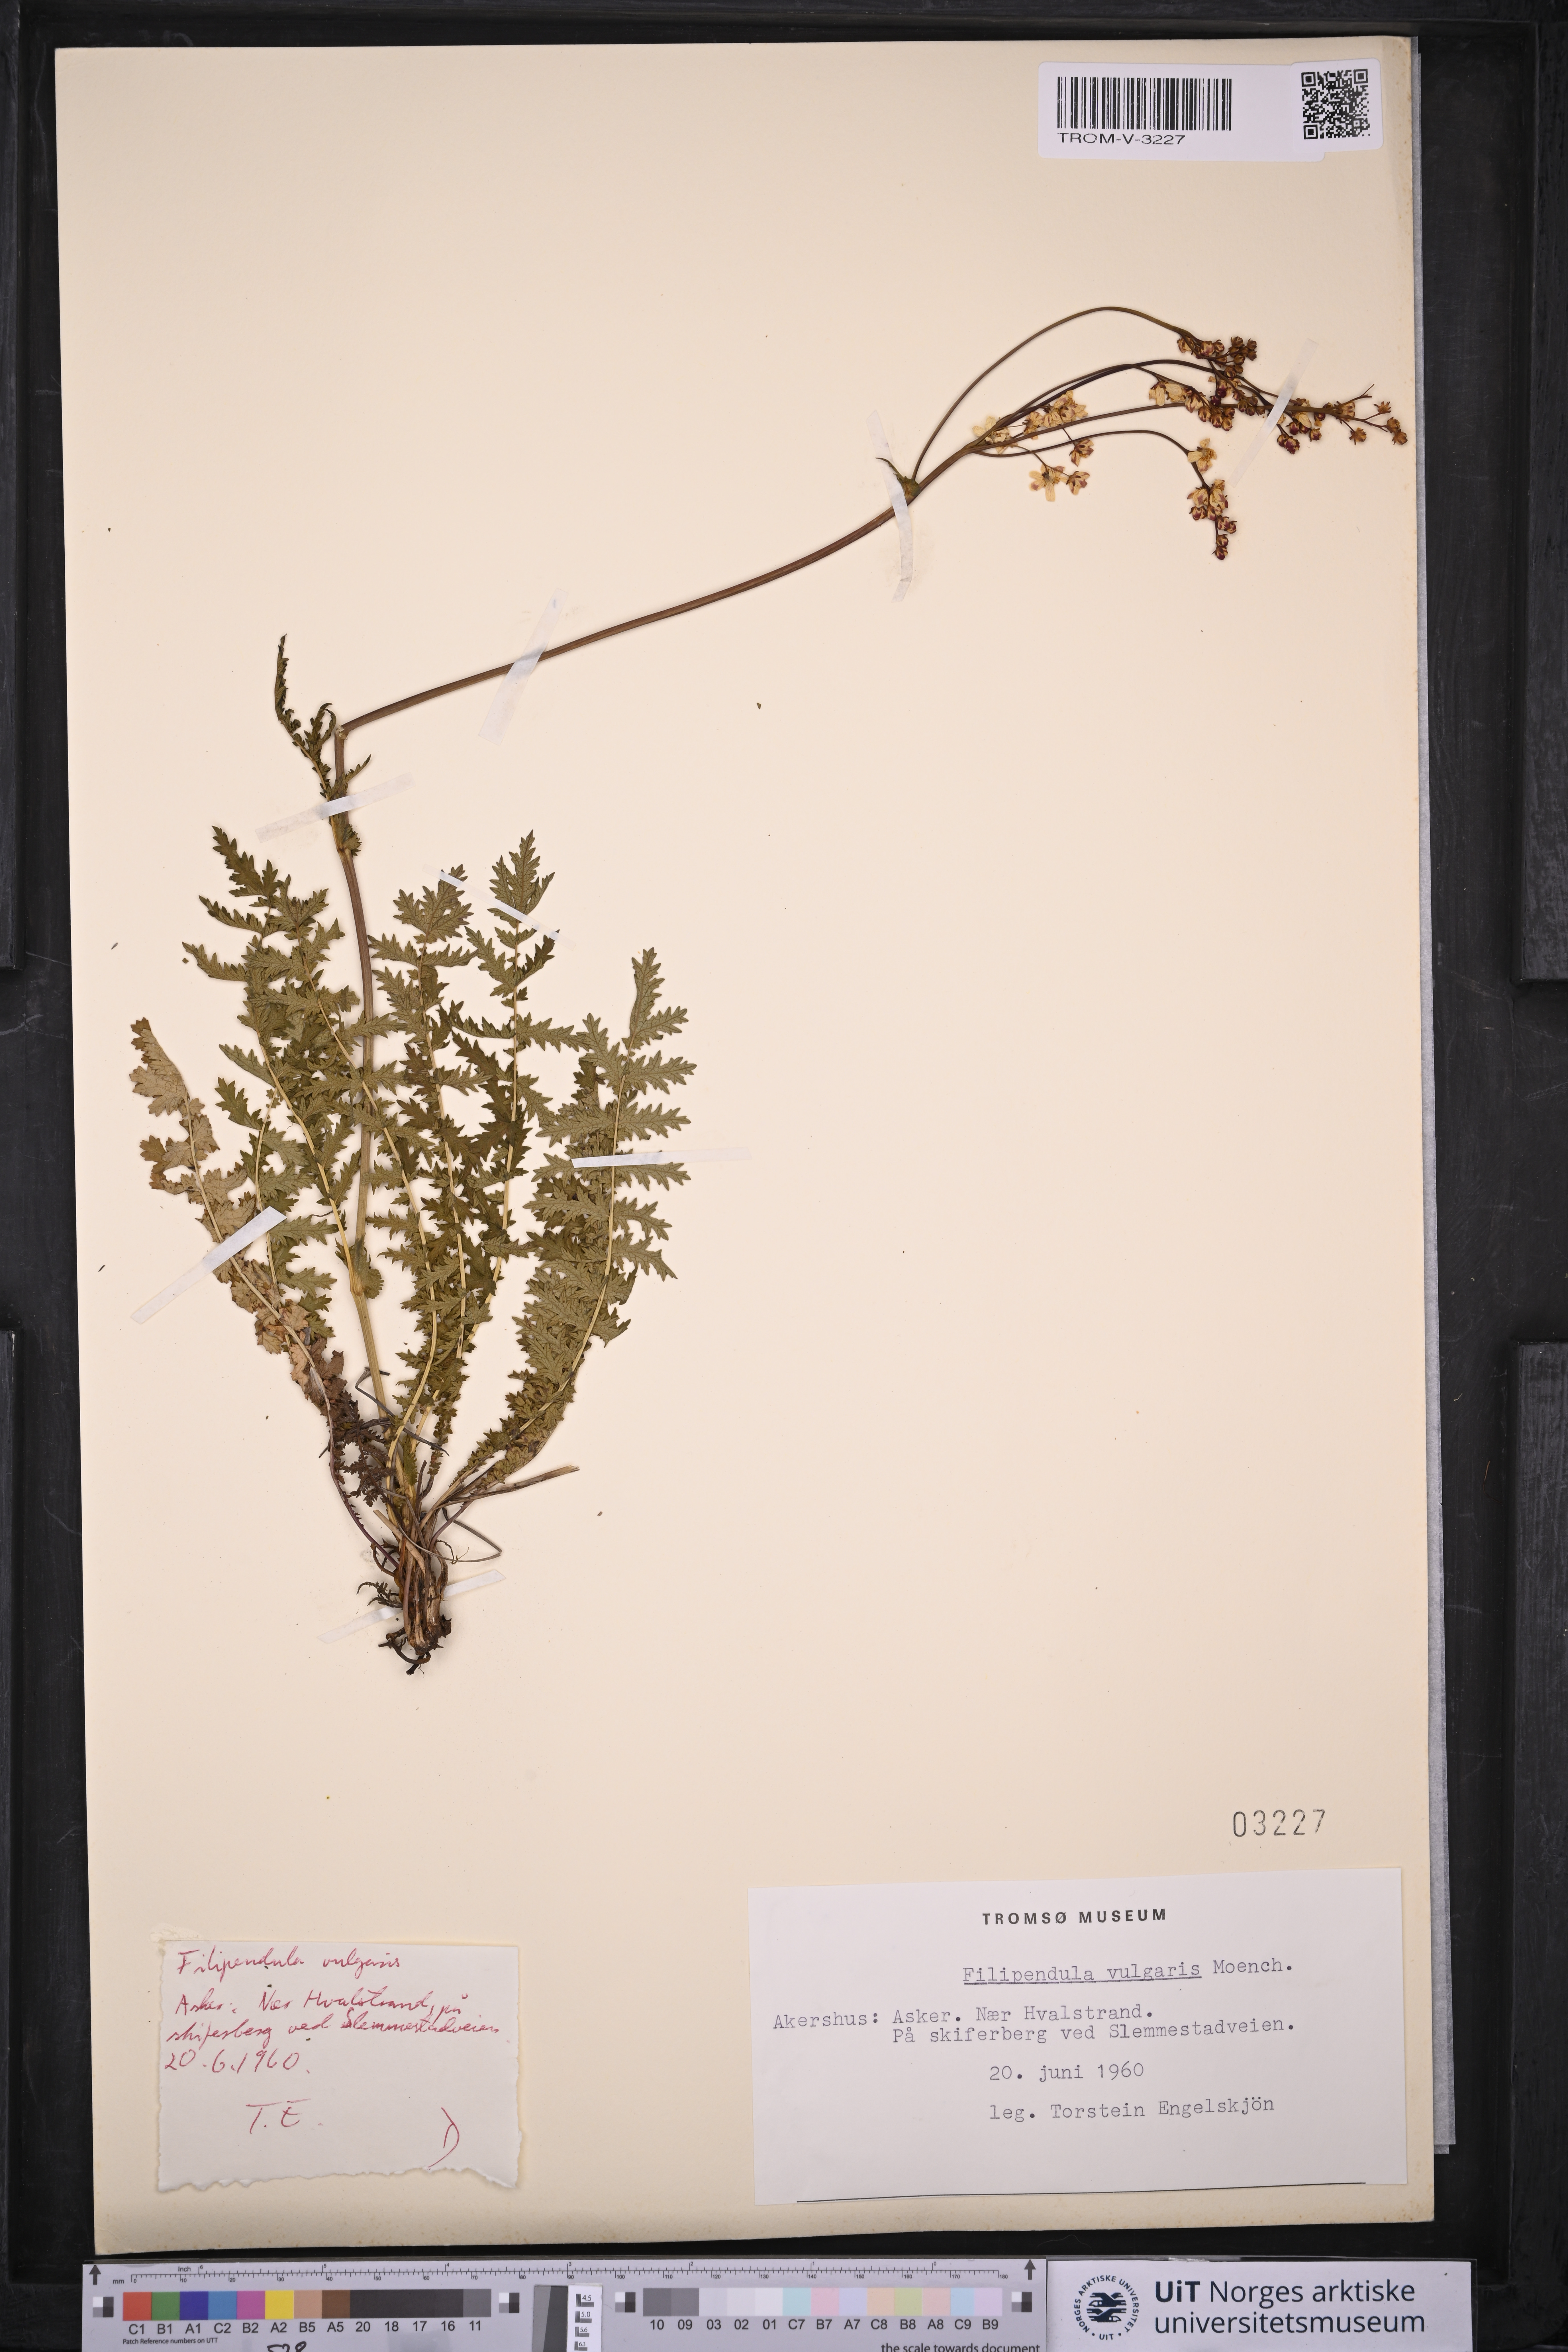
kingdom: Plantae
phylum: Tracheophyta
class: Magnoliopsida
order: Rosales
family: Rosaceae
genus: Filipendula
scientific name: Filipendula vulgaris
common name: Dropwort
